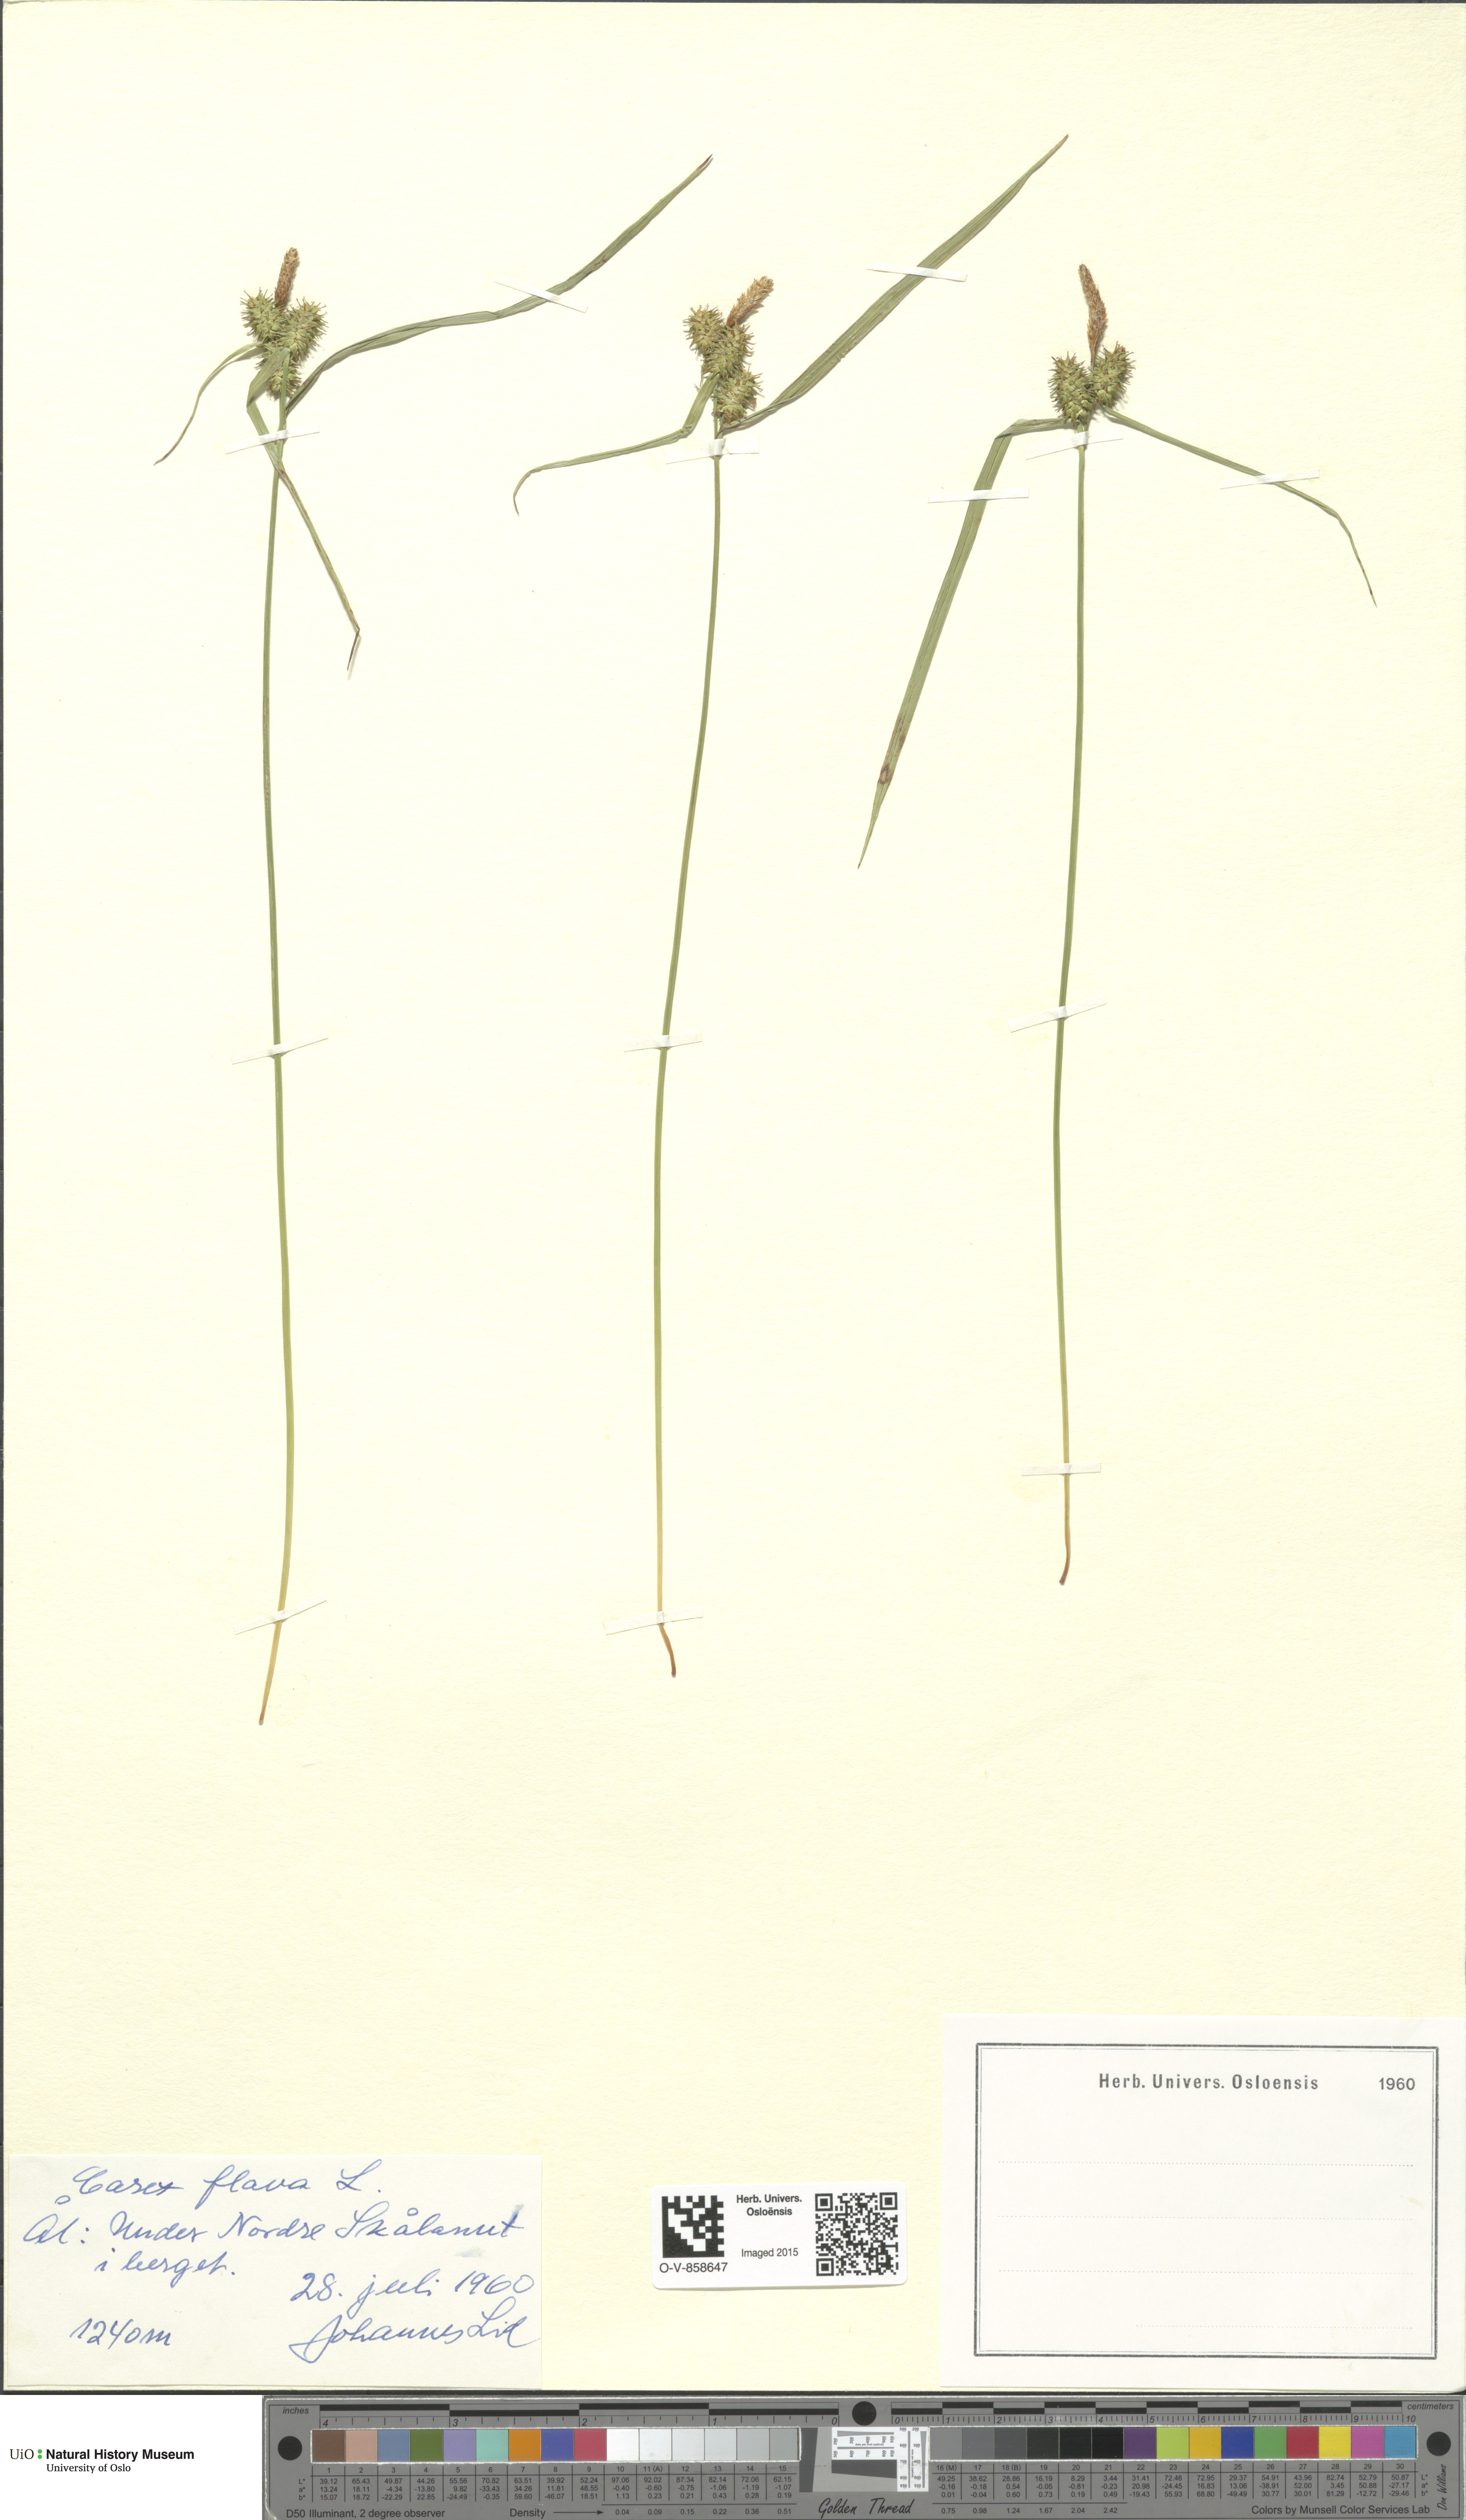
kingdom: Plantae
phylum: Tracheophyta
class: Liliopsida
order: Poales
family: Cyperaceae
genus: Carex
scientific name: Carex flava
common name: Large yellow-sedge
